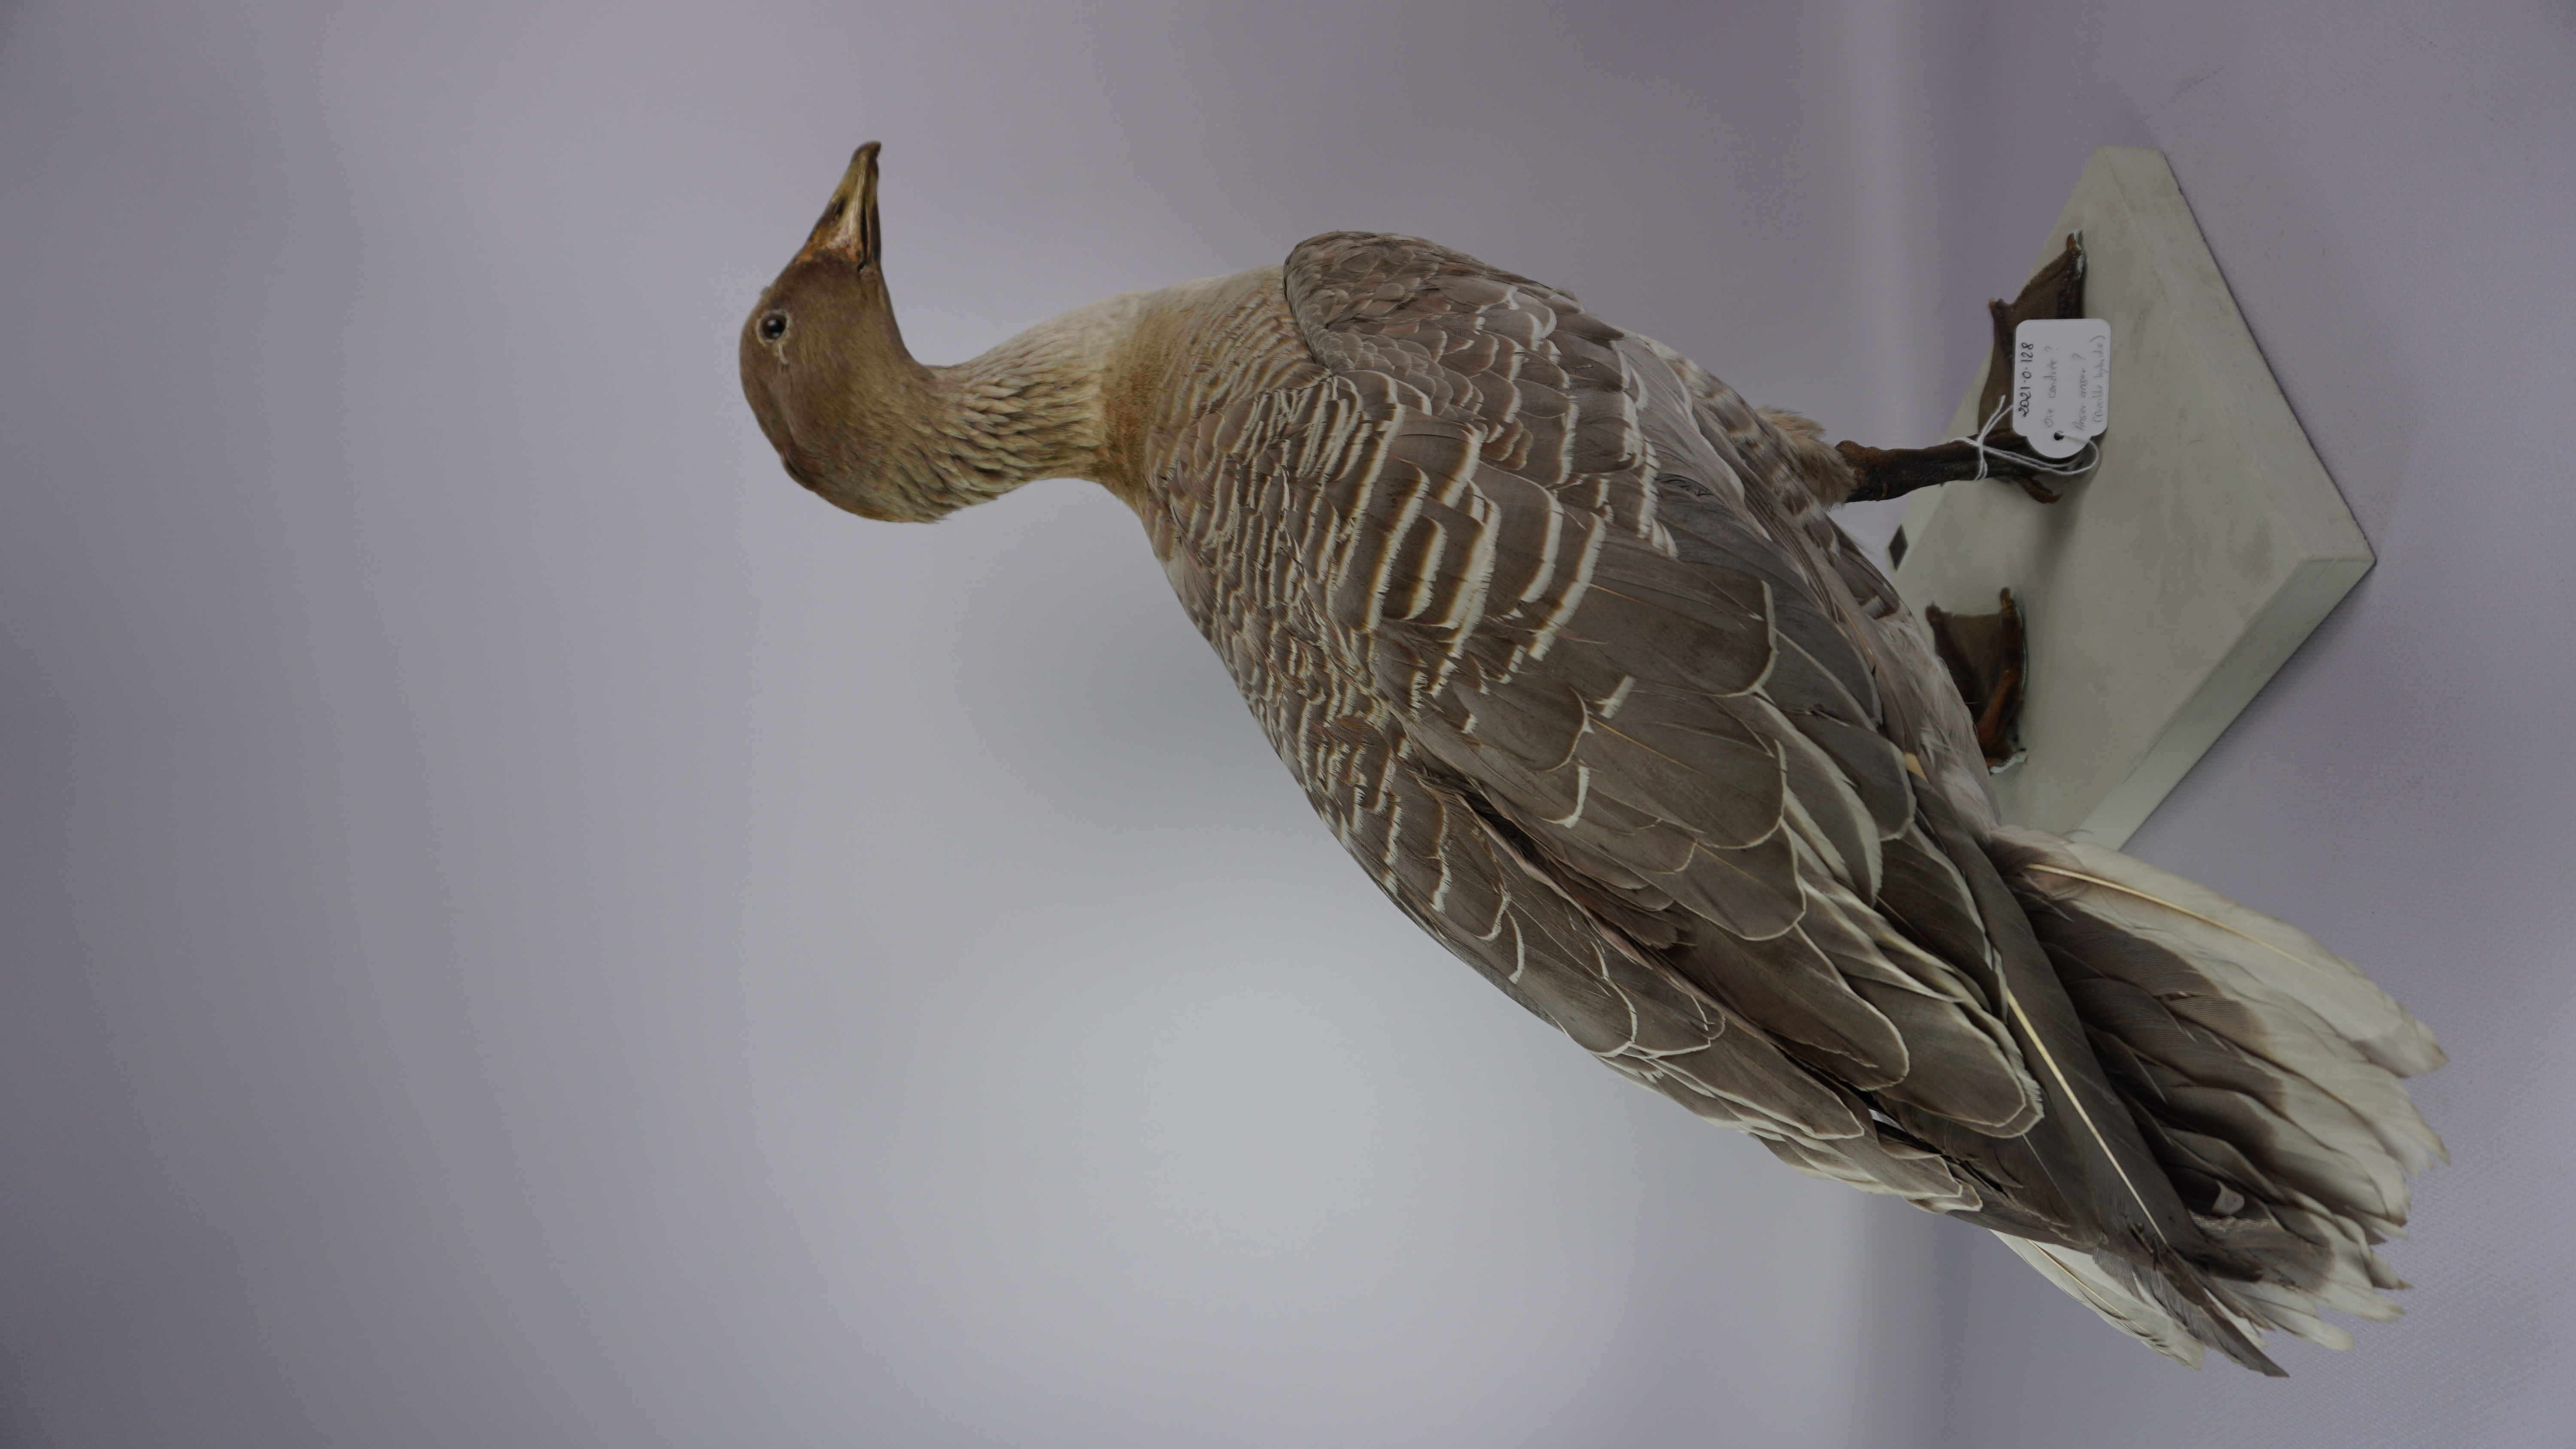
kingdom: Animalia
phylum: Chordata
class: Aves
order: Anseriformes
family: Anatidae
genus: Anser
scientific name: Anser anser
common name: Greylag goose
